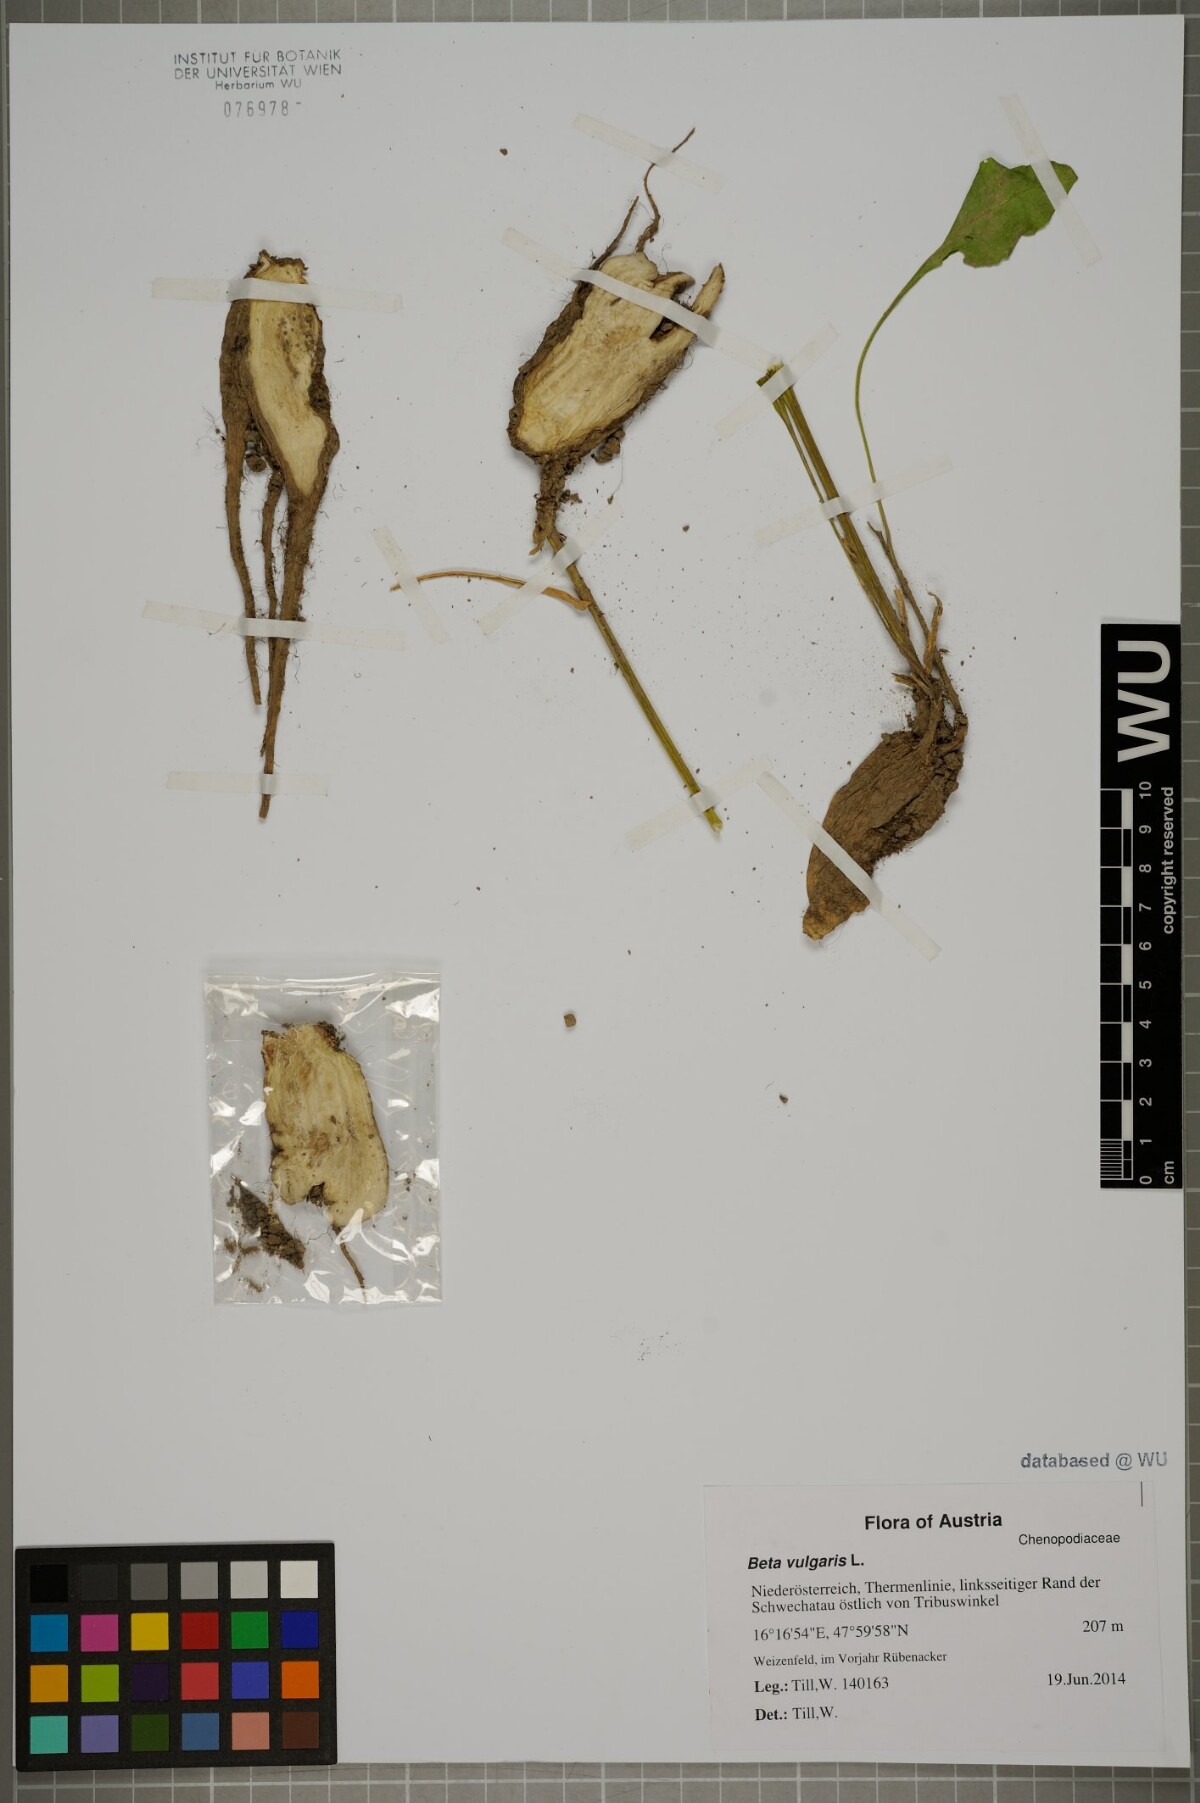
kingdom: Plantae
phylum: Tracheophyta
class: Magnoliopsida
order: Caryophyllales
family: Amaranthaceae
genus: Beta
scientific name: Beta vulgaris
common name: Beet
